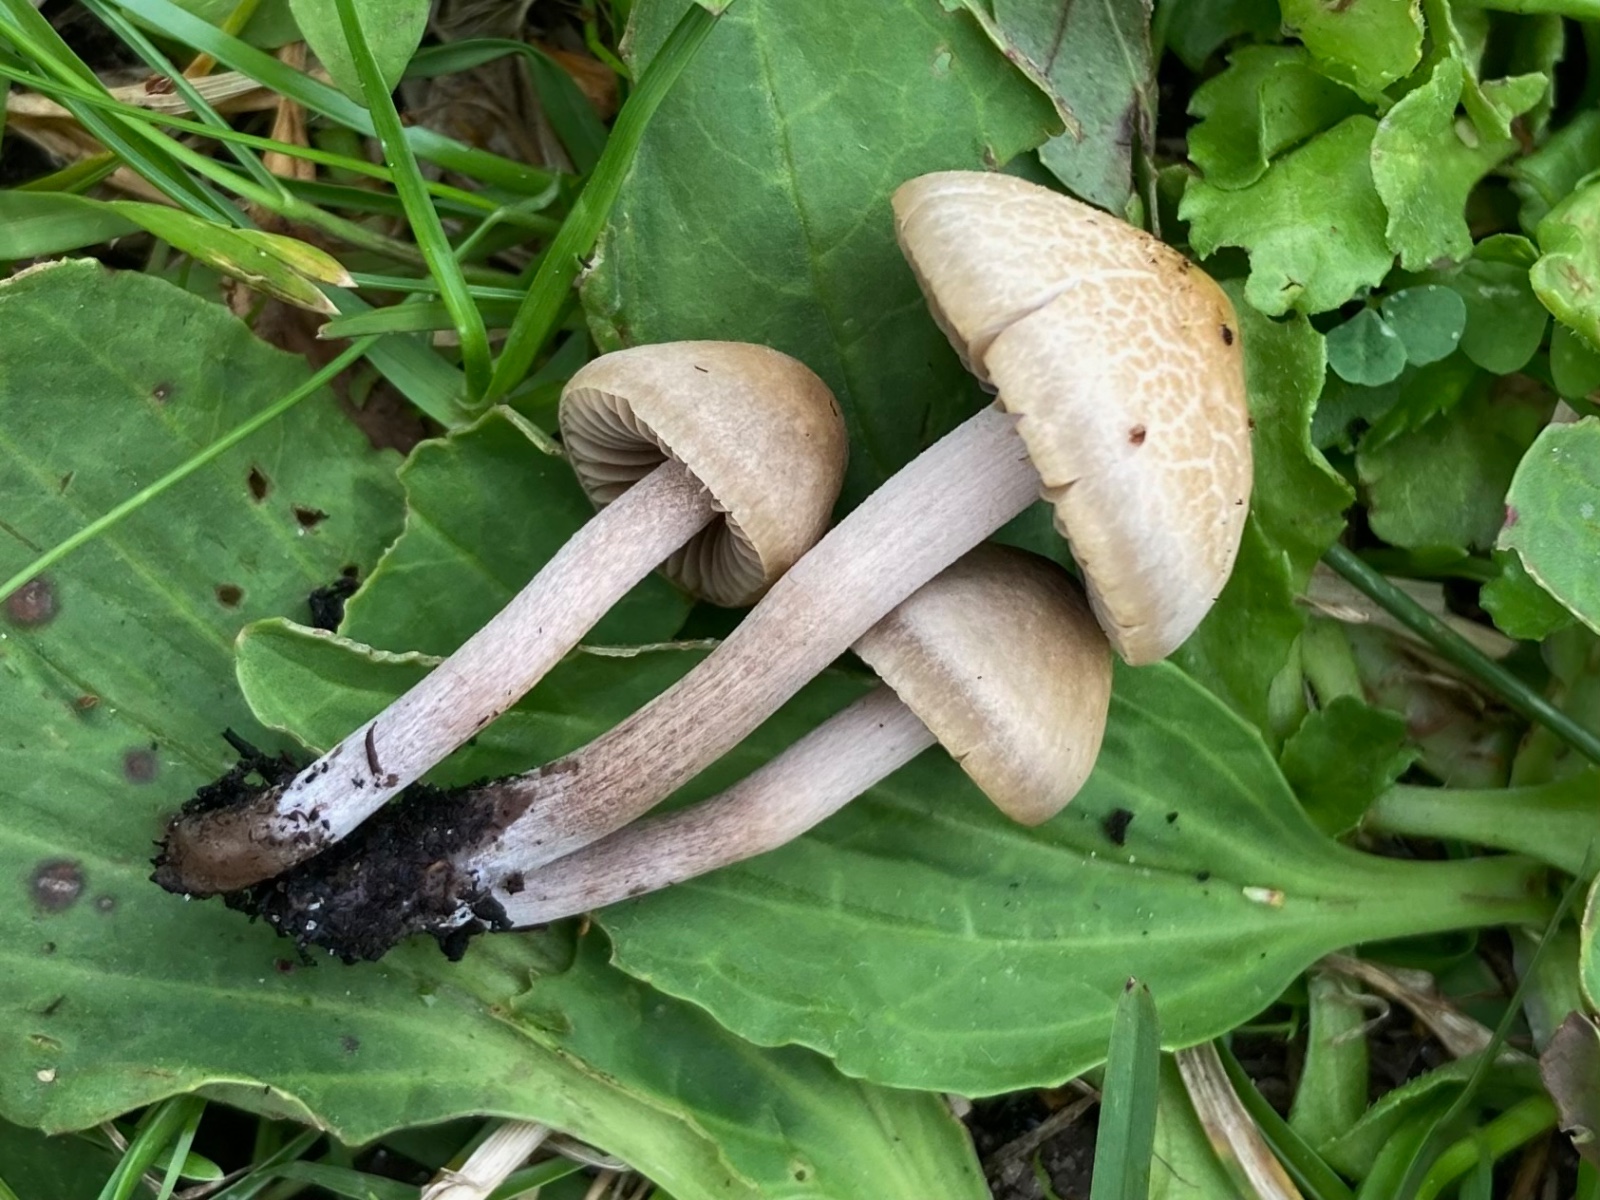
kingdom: Fungi
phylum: Basidiomycota
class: Agaricomycetes
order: Agaricales
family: Bolbitiaceae
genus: Panaeolus
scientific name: Panaeolus cinctulus
